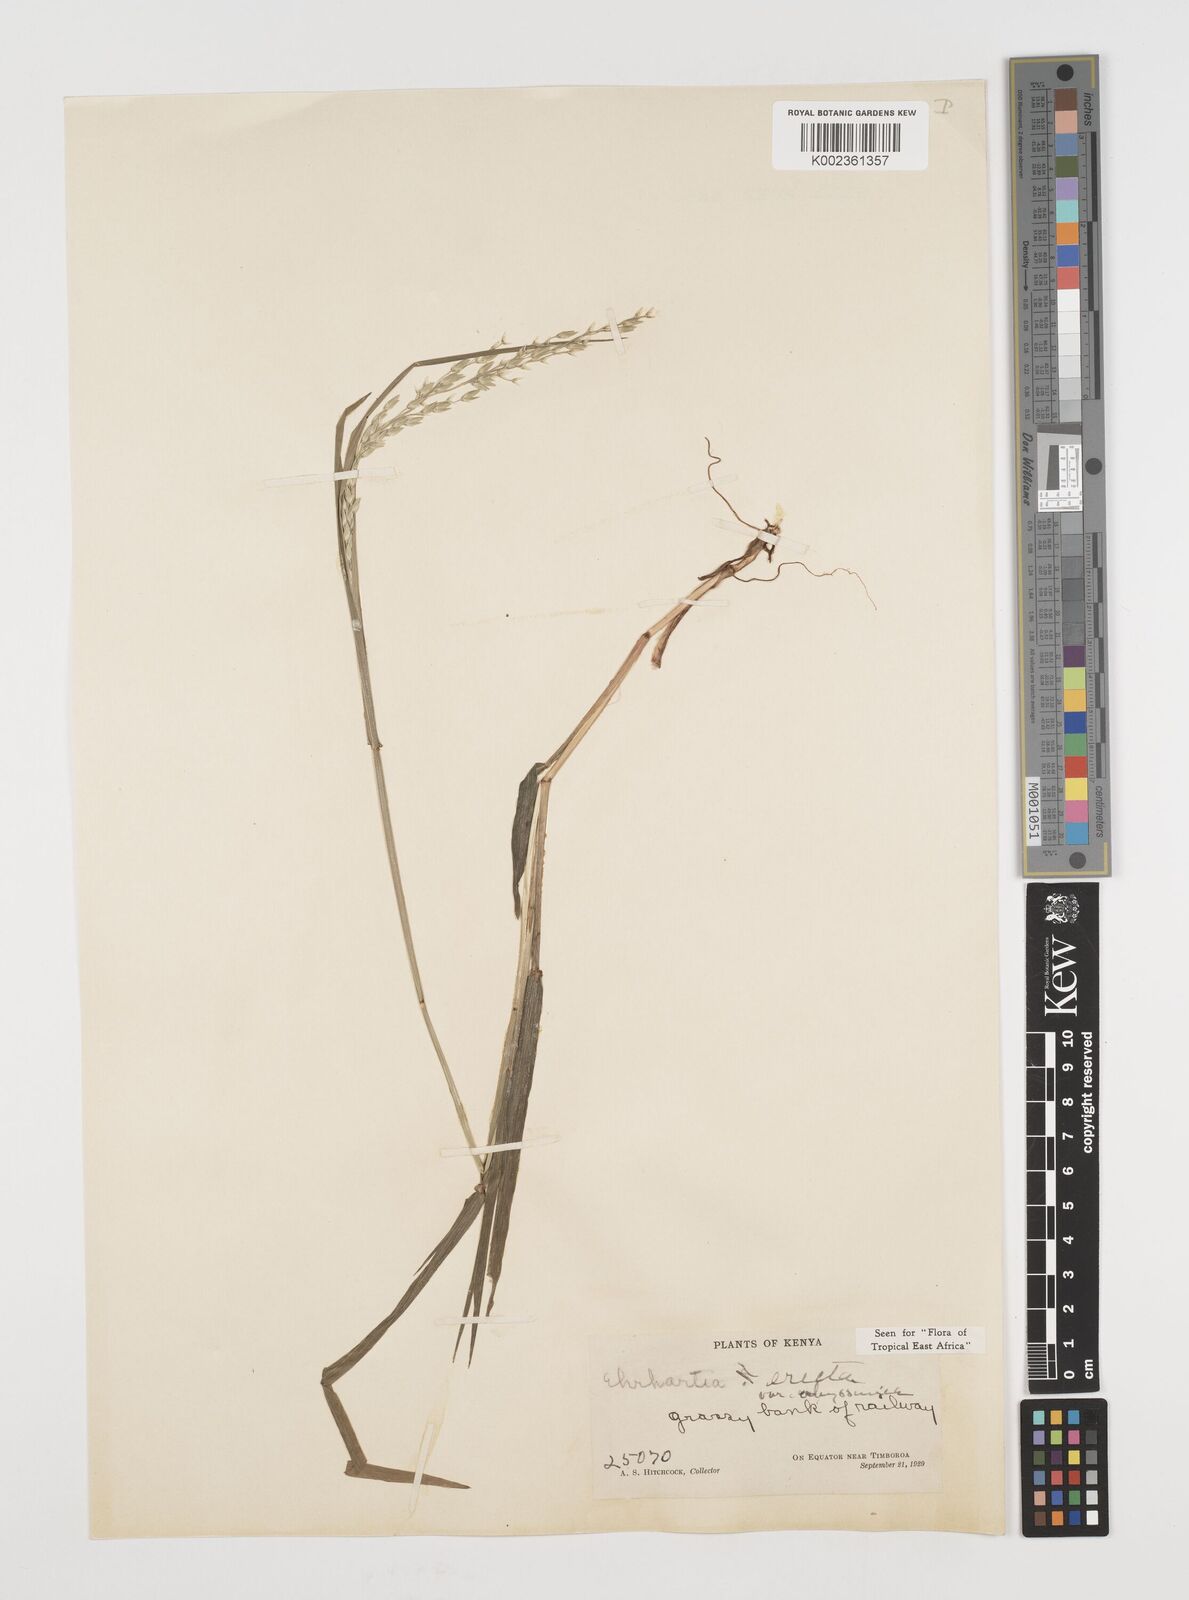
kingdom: Plantae
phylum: Tracheophyta
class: Liliopsida
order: Poales
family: Poaceae
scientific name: Poaceae
